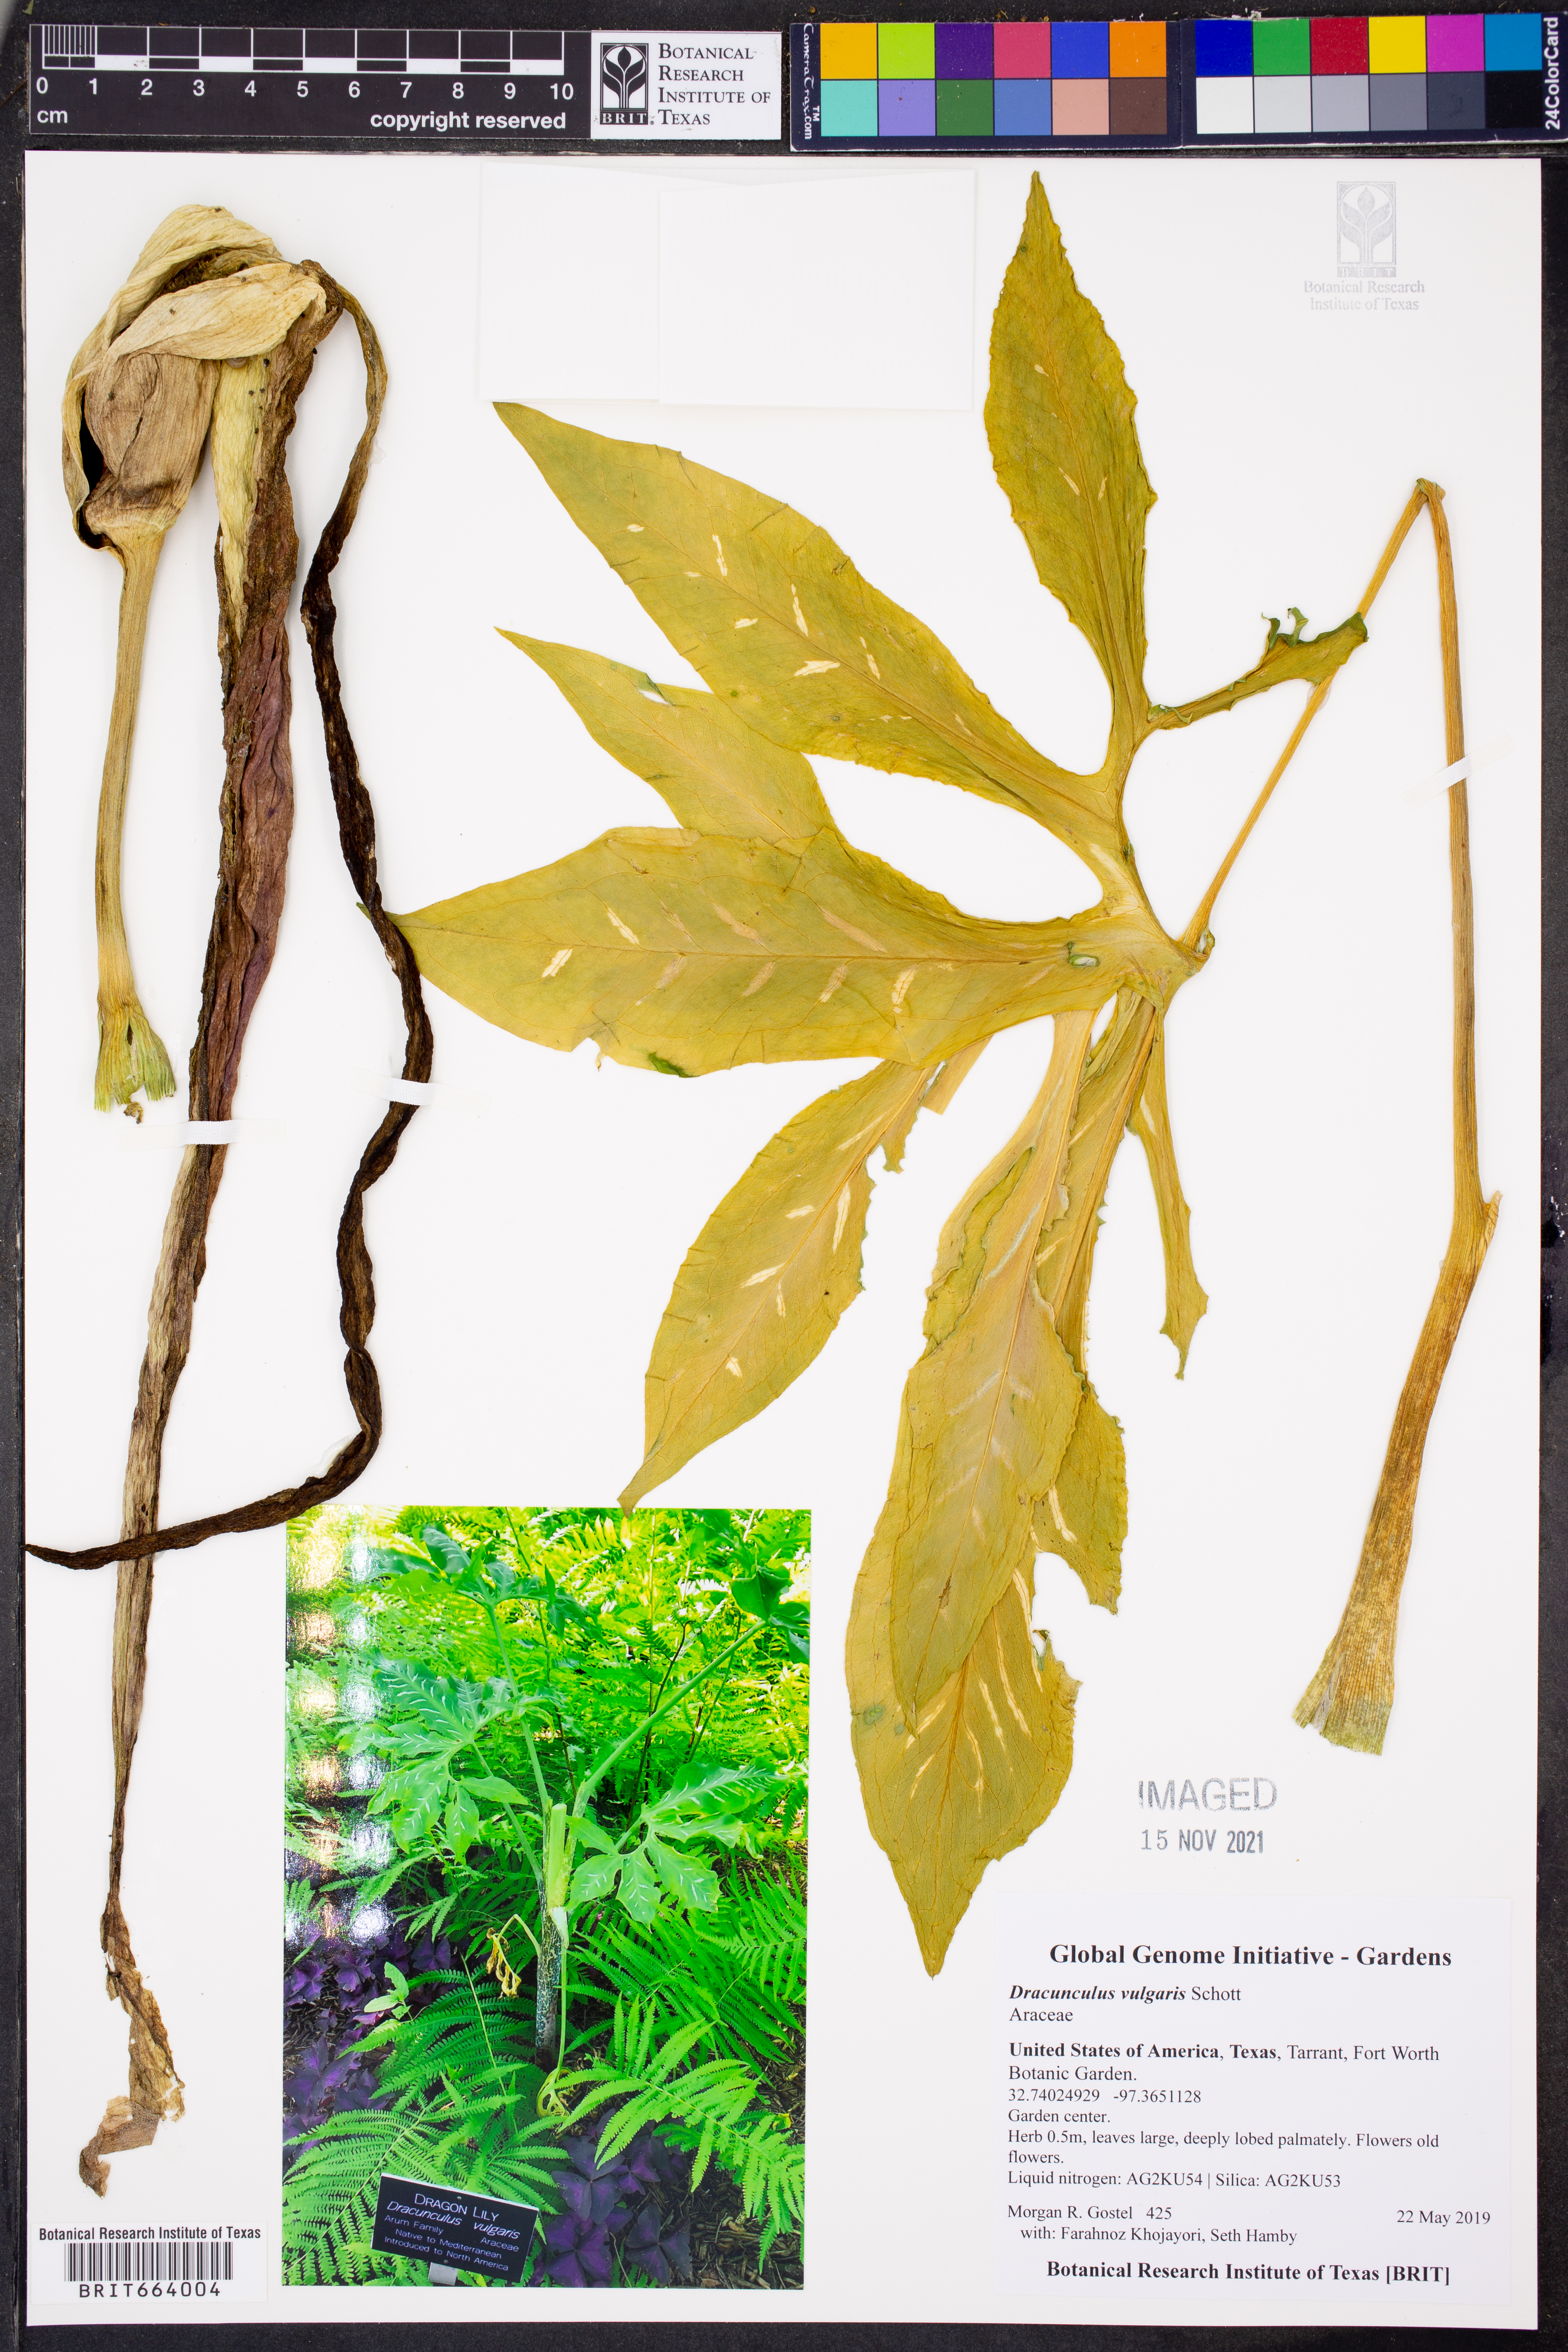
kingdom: Plantae
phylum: Tracheophyta
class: Liliopsida
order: Alismatales
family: Araceae
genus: Dracunculus
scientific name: Dracunculus vulgaris
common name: Dragon arum
